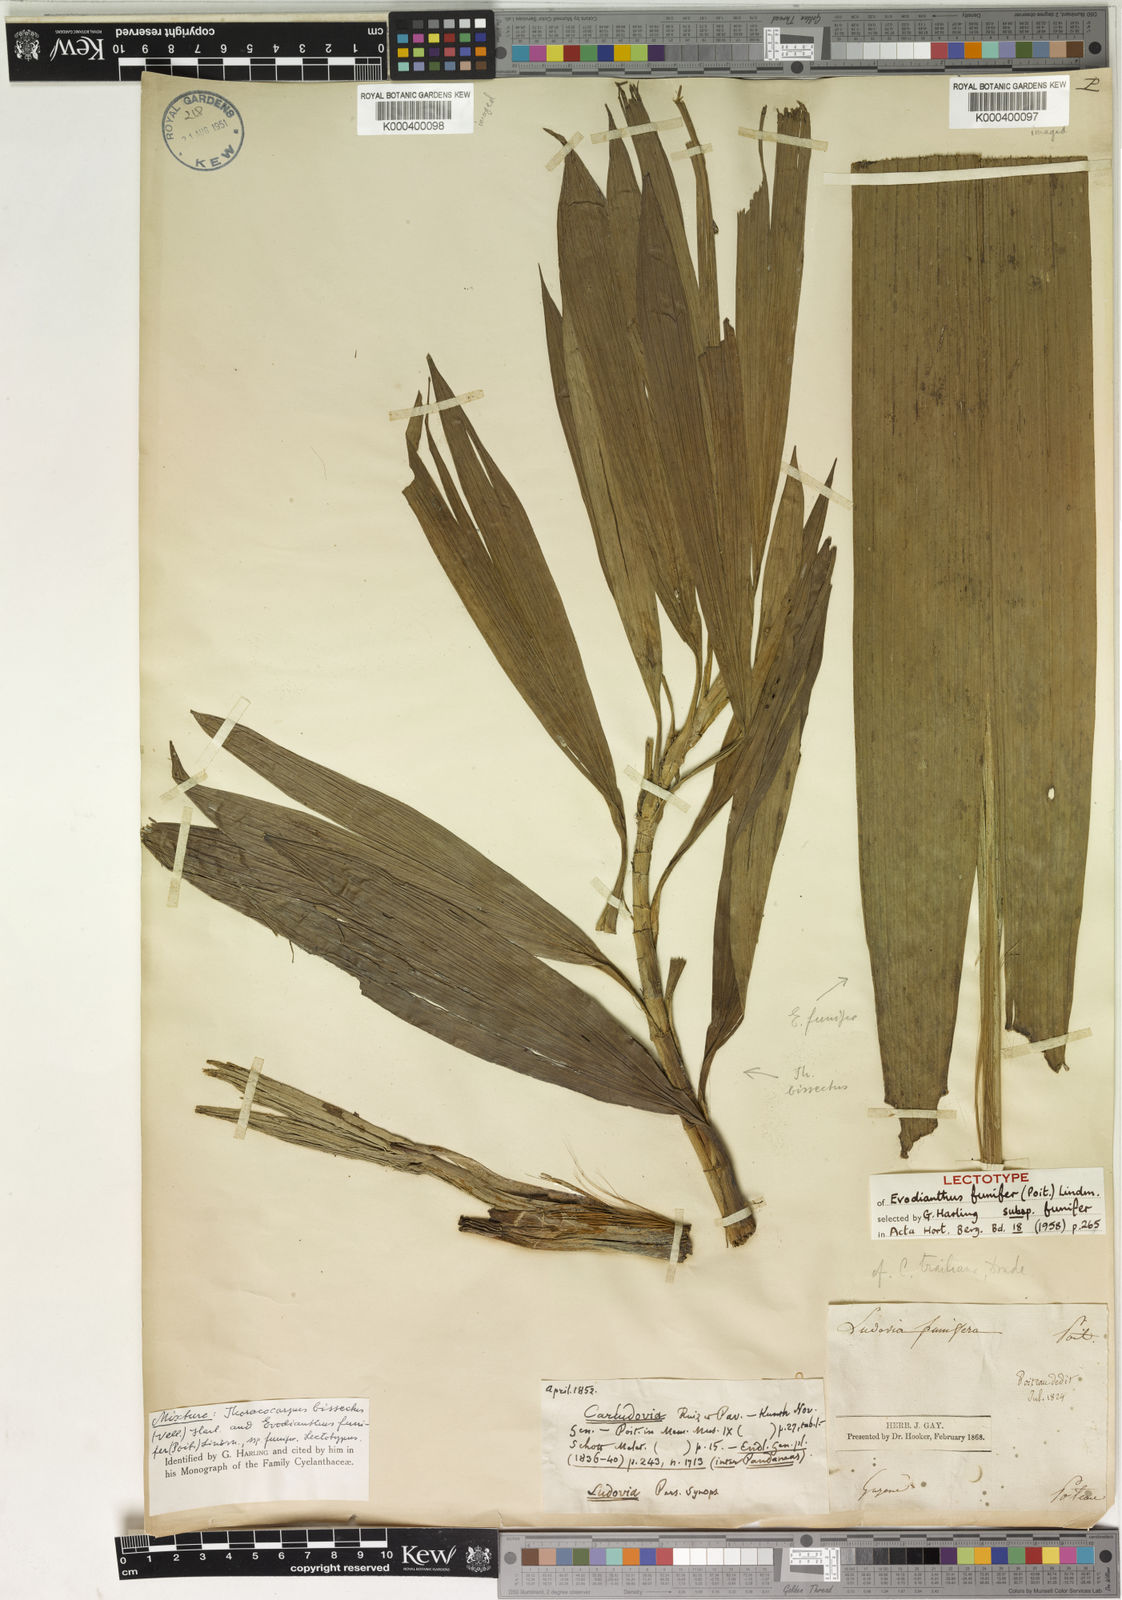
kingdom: Plantae
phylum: Tracheophyta
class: Liliopsida
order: Pandanales
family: Cyclanthaceae
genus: Evodianthus
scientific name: Evodianthus funifer
